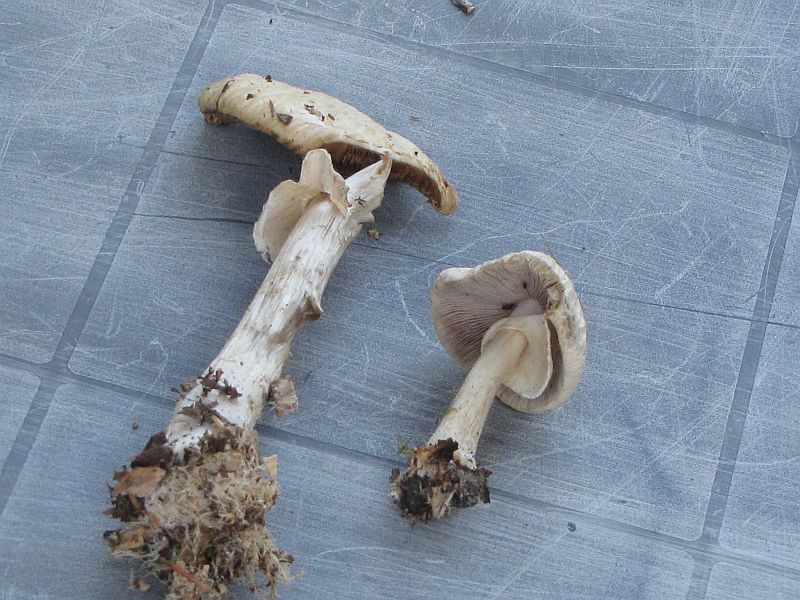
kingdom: Fungi
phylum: Basidiomycota
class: Agaricomycetes
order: Agaricales
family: Strophariaceae
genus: Agrocybe
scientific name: Agrocybe rivulosa
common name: året agerhat
